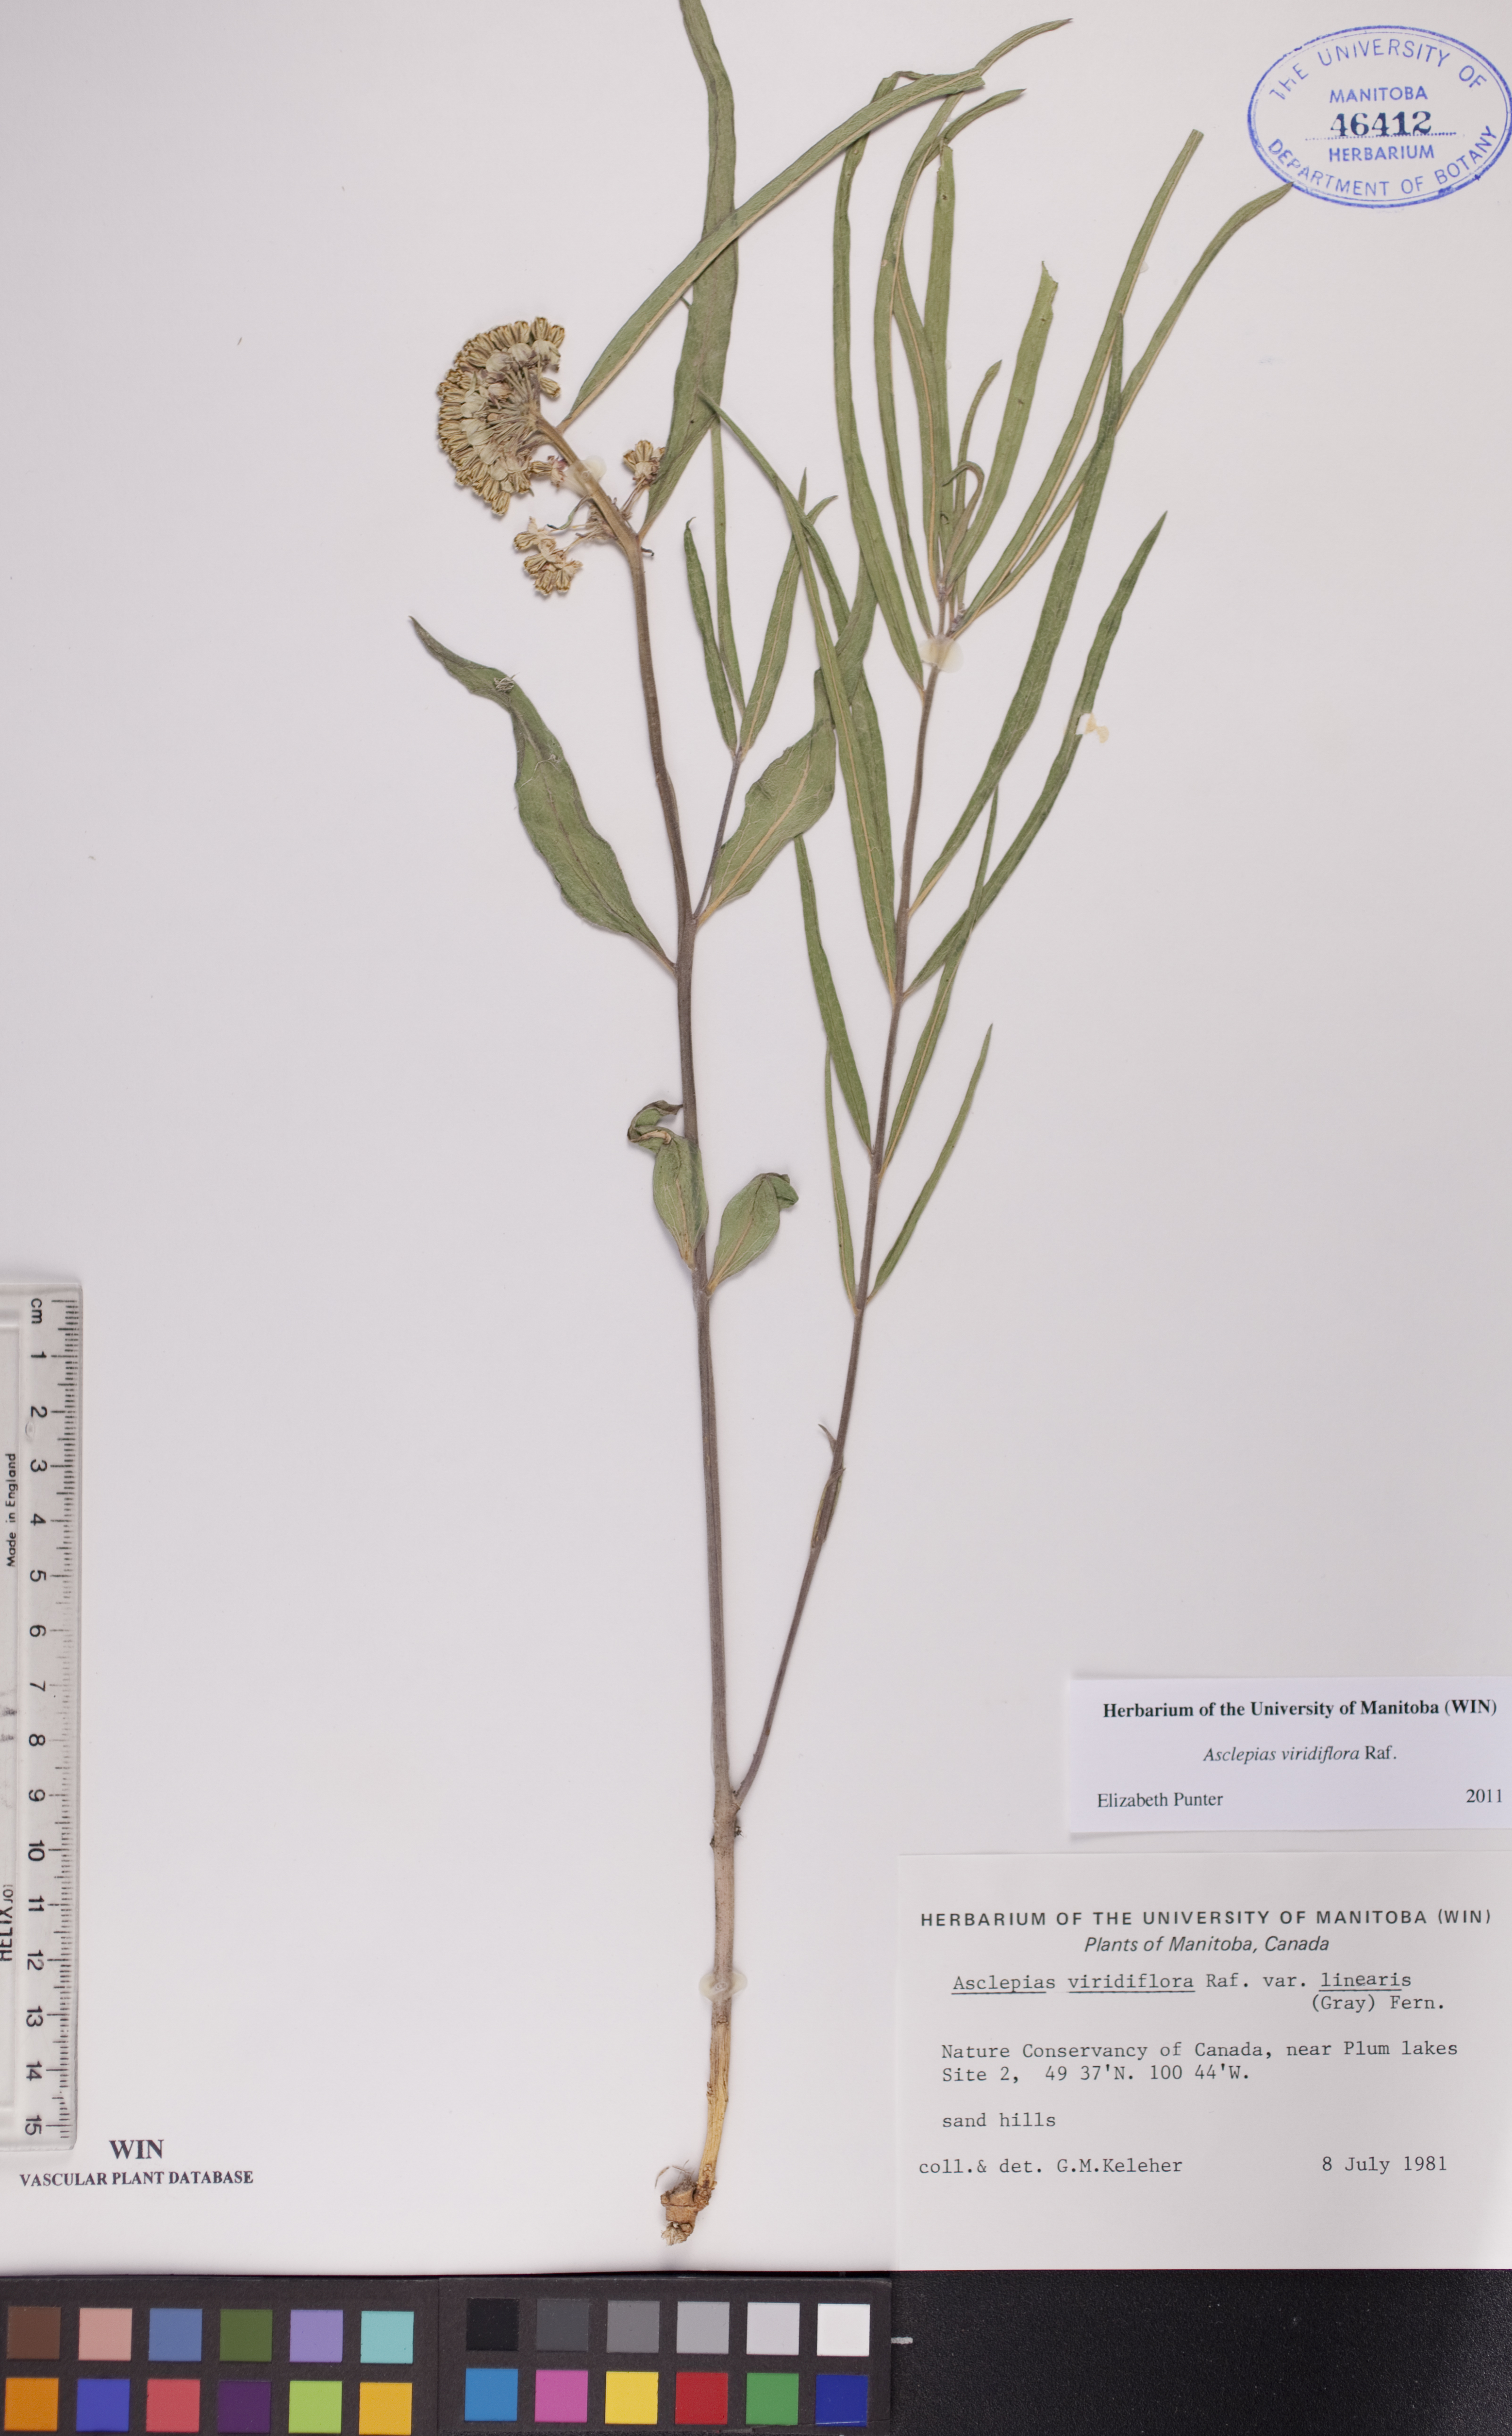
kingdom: Plantae
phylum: Tracheophyta
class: Magnoliopsida
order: Gentianales
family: Apocynaceae
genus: Asclepias
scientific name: Asclepias linearis
